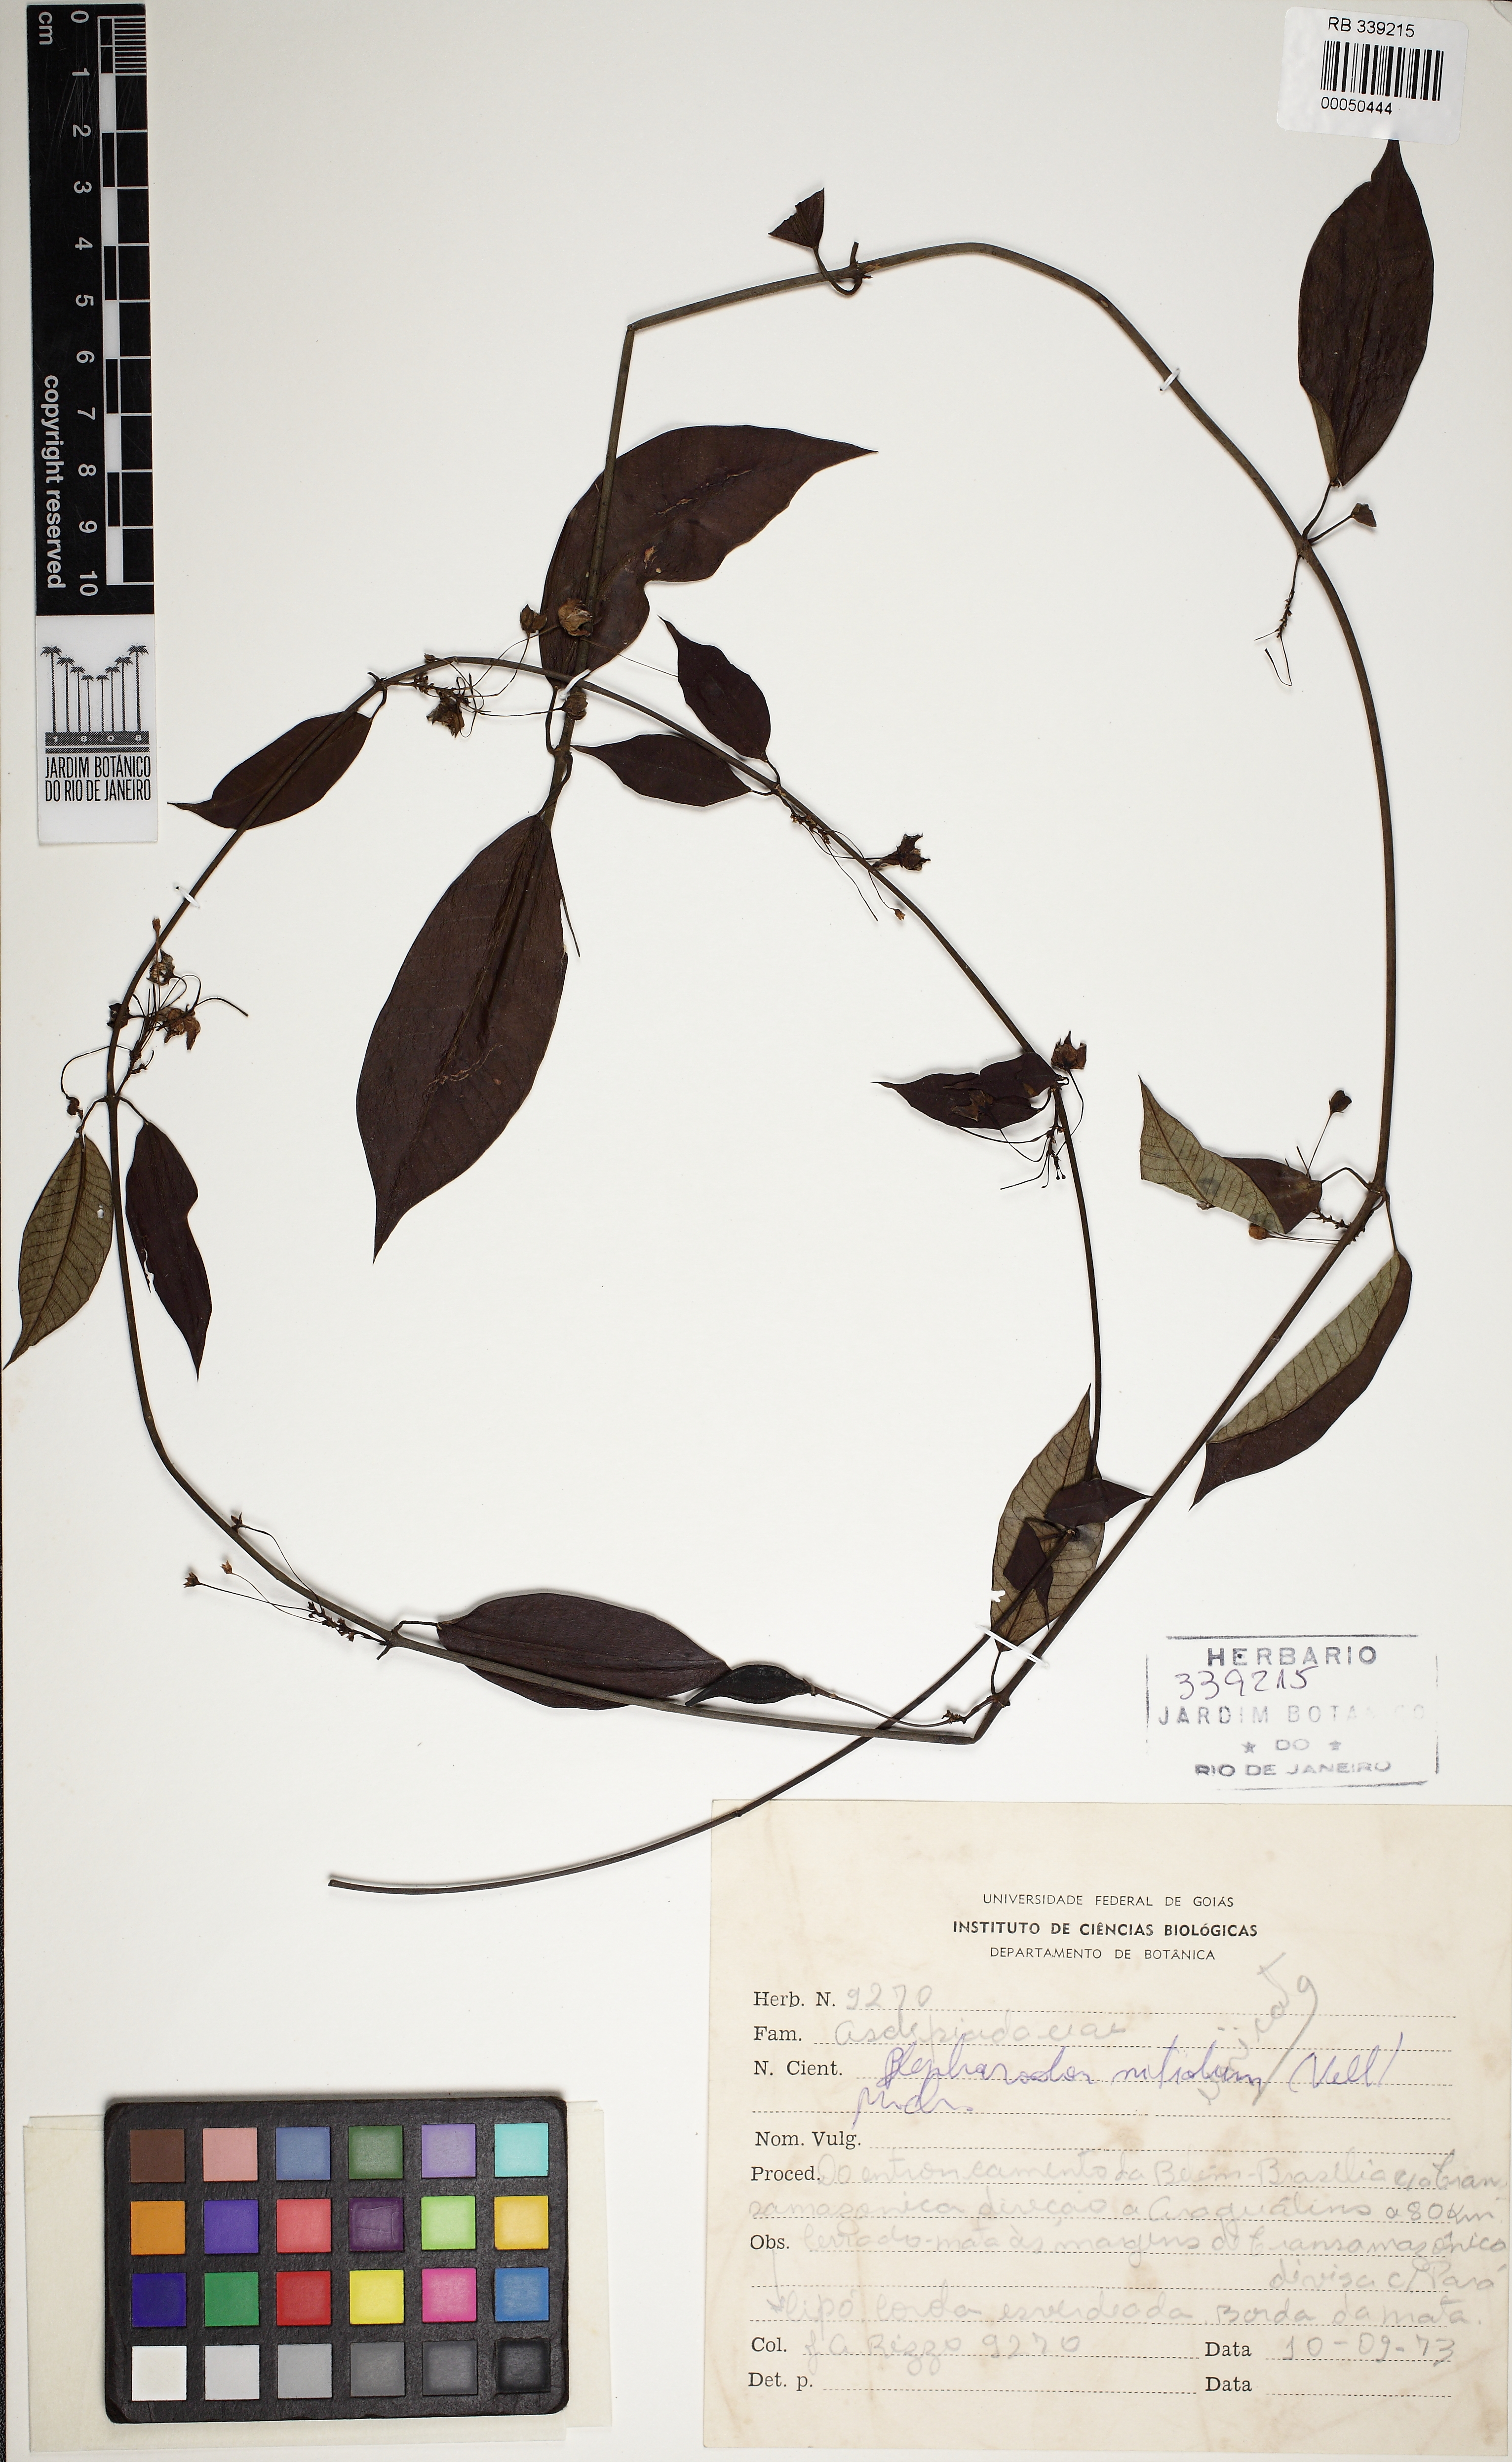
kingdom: Plantae
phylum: Tracheophyta
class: Magnoliopsida
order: Gentianales
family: Apocynaceae
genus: Blepharodon
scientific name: Blepharodon pictum
